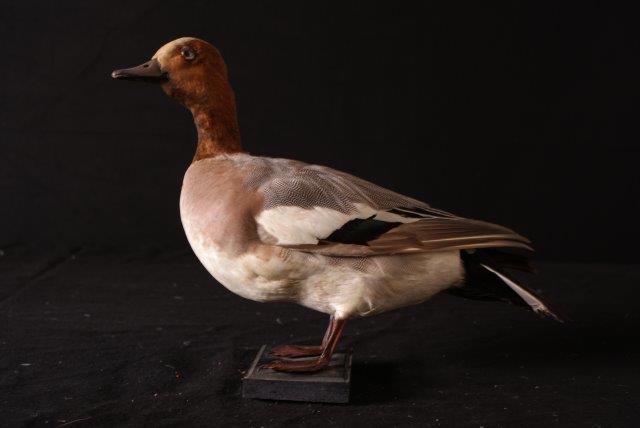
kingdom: Animalia
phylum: Chordata
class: Aves
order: Anseriformes
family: Anatidae
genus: Mareca
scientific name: Mareca penelope
